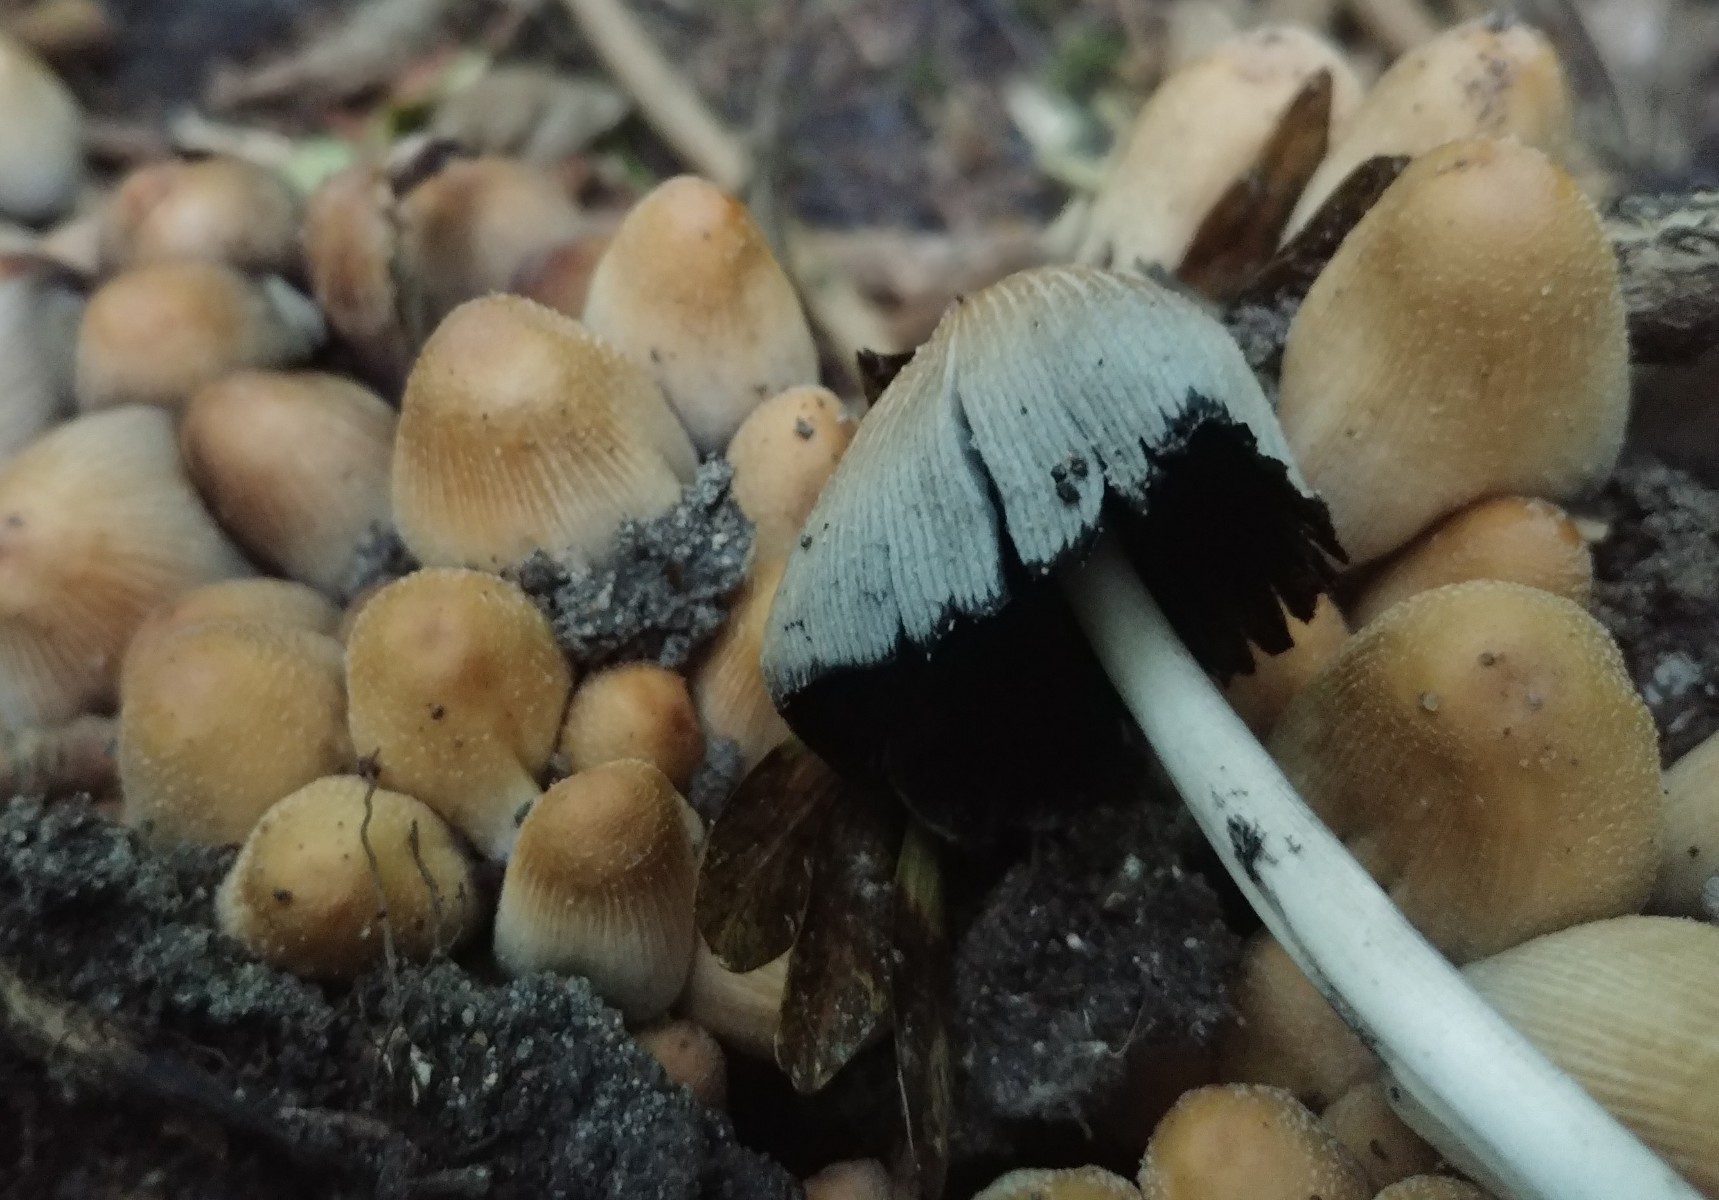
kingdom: Fungi
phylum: Basidiomycota
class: Agaricomycetes
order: Agaricales
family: Psathyrellaceae
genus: Coprinellus
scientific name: Coprinellus micaceus
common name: glimmer-blækhat
